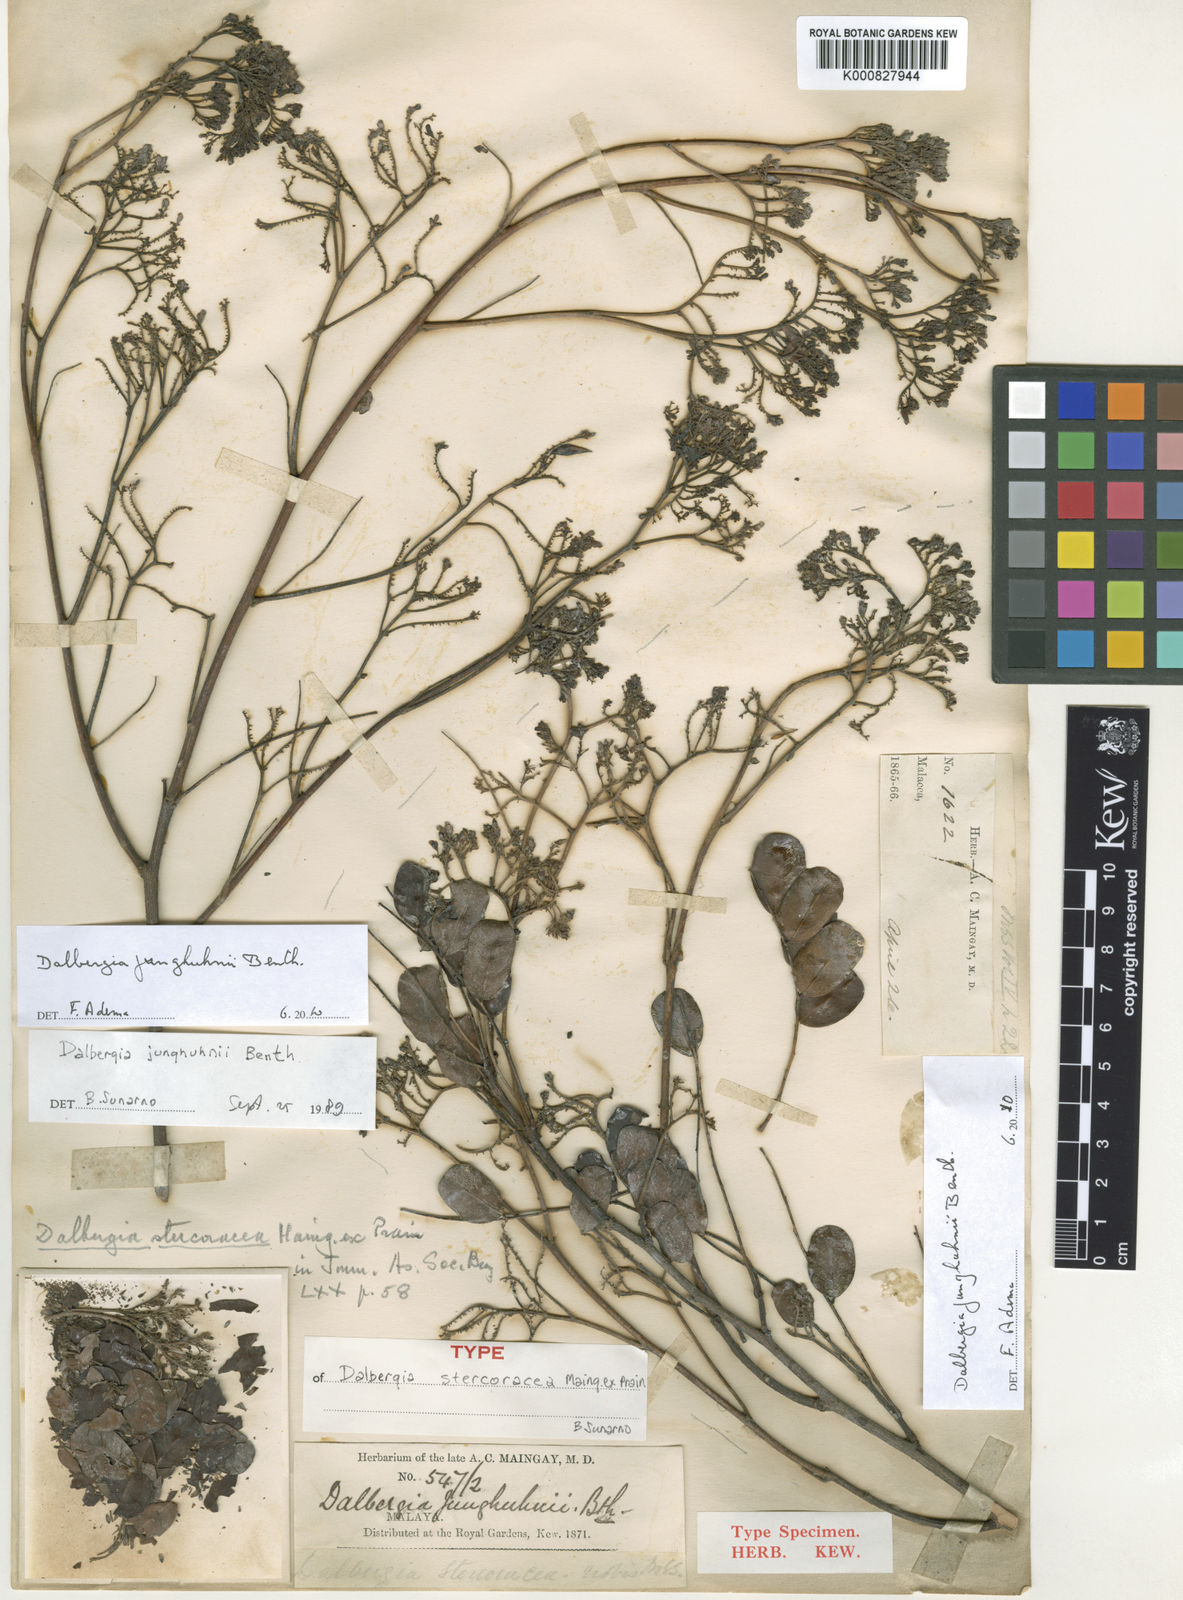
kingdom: Plantae
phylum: Tracheophyta
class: Magnoliopsida
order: Fabales
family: Fabaceae
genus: Dalbergia
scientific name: Dalbergia junghuhnii
